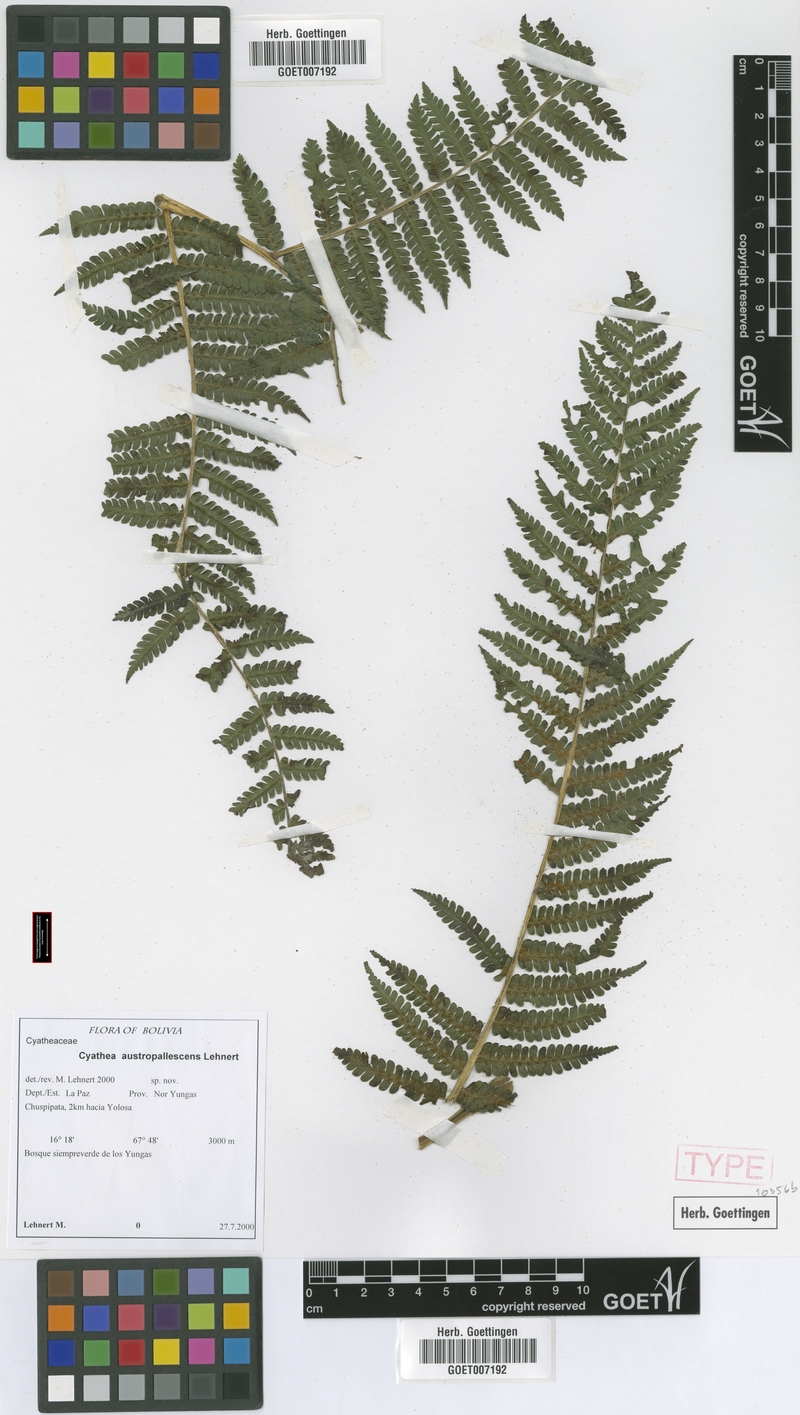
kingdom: Plantae
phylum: Tracheophyta
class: Polypodiopsida
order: Cyatheales
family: Cyatheaceae
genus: Cyathea
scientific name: Cyathea austropallescens
